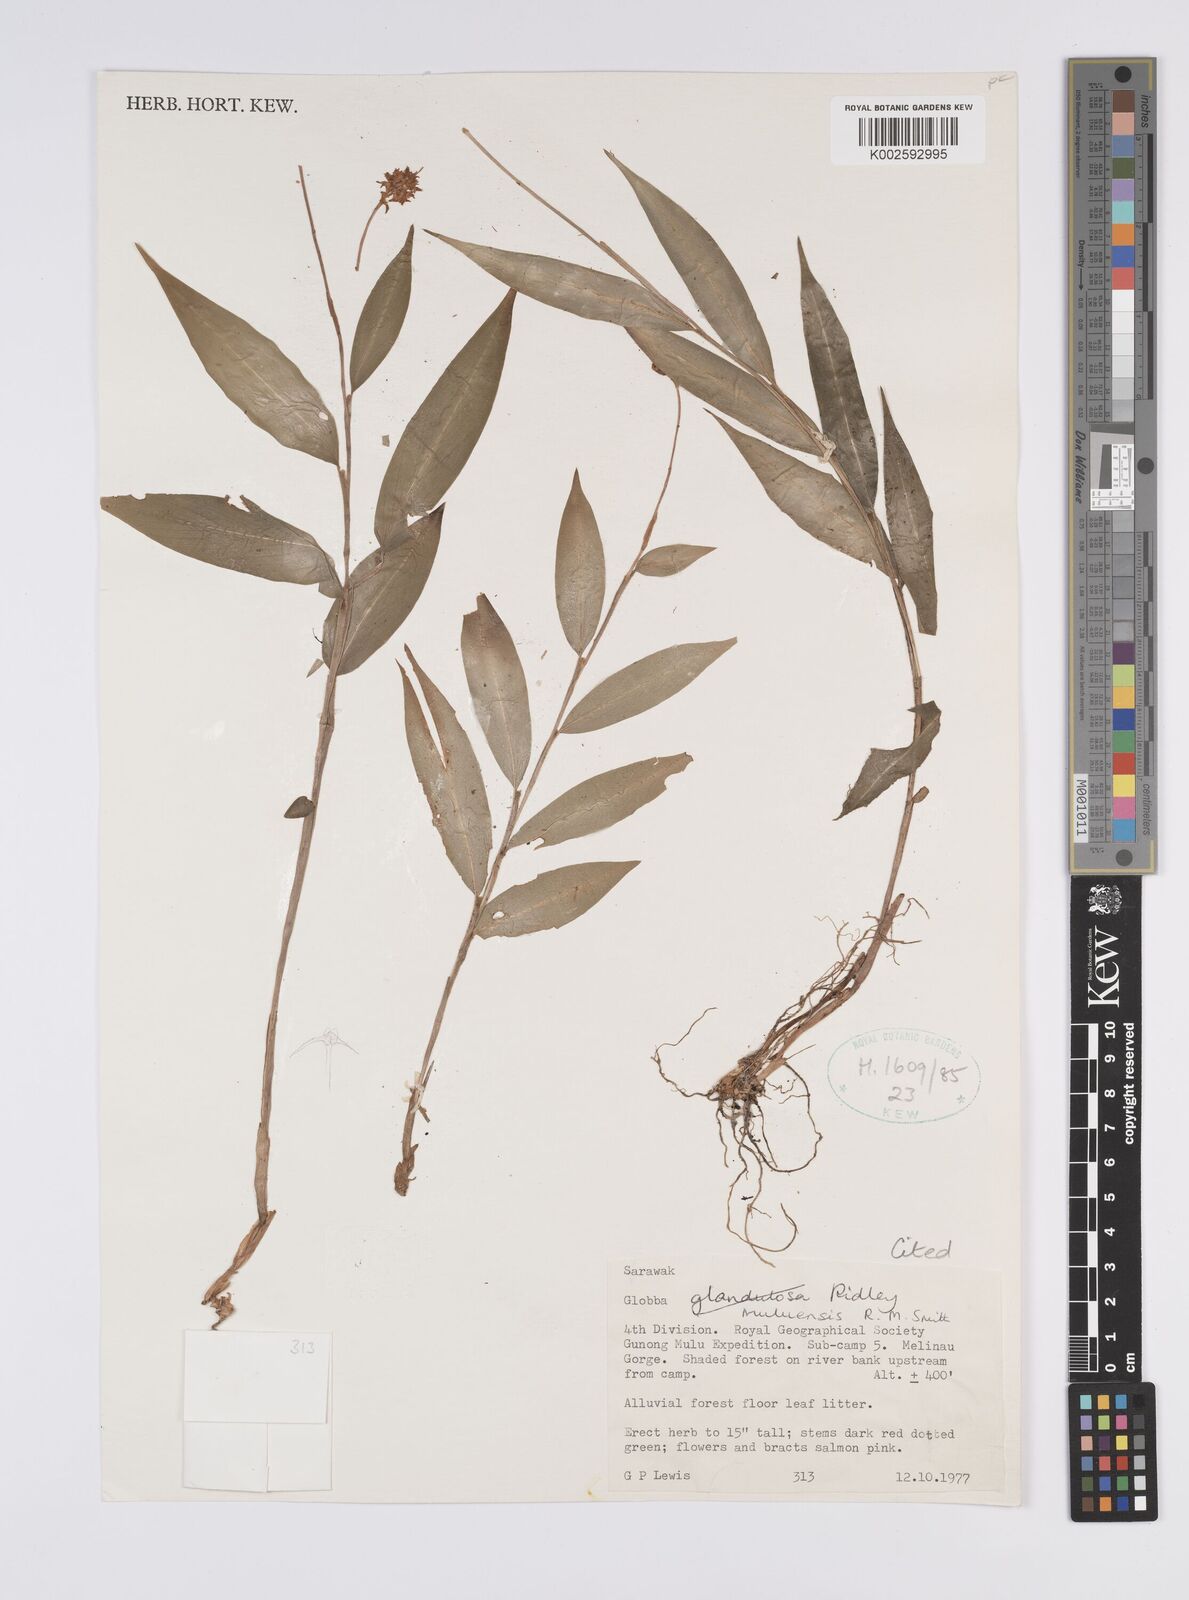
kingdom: Plantae
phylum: Tracheophyta
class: Liliopsida
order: Zingiberales
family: Zingiberaceae
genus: Globba
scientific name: Globba muluensis
